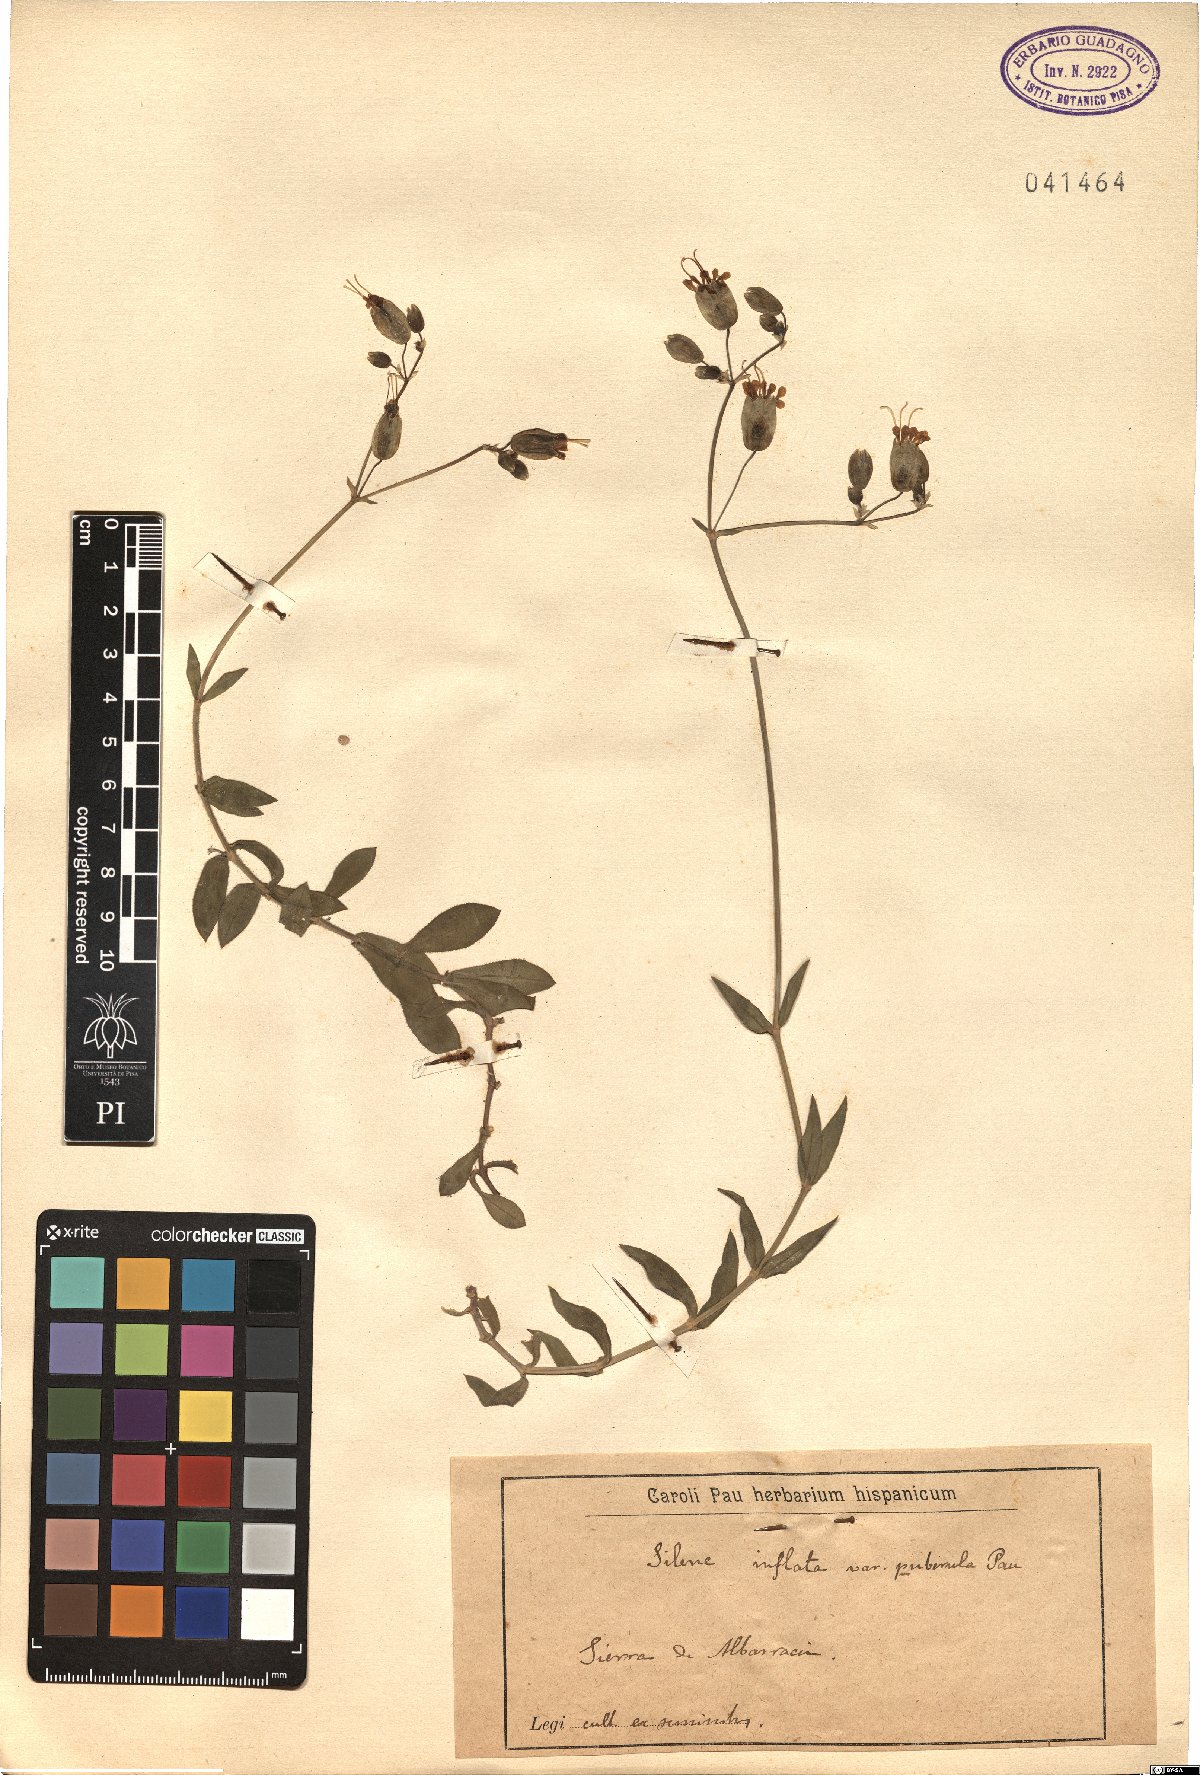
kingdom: Plantae
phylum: Tracheophyta
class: Magnoliopsida
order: Caryophyllales
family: Caryophyllaceae
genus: Silene
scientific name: Silene
